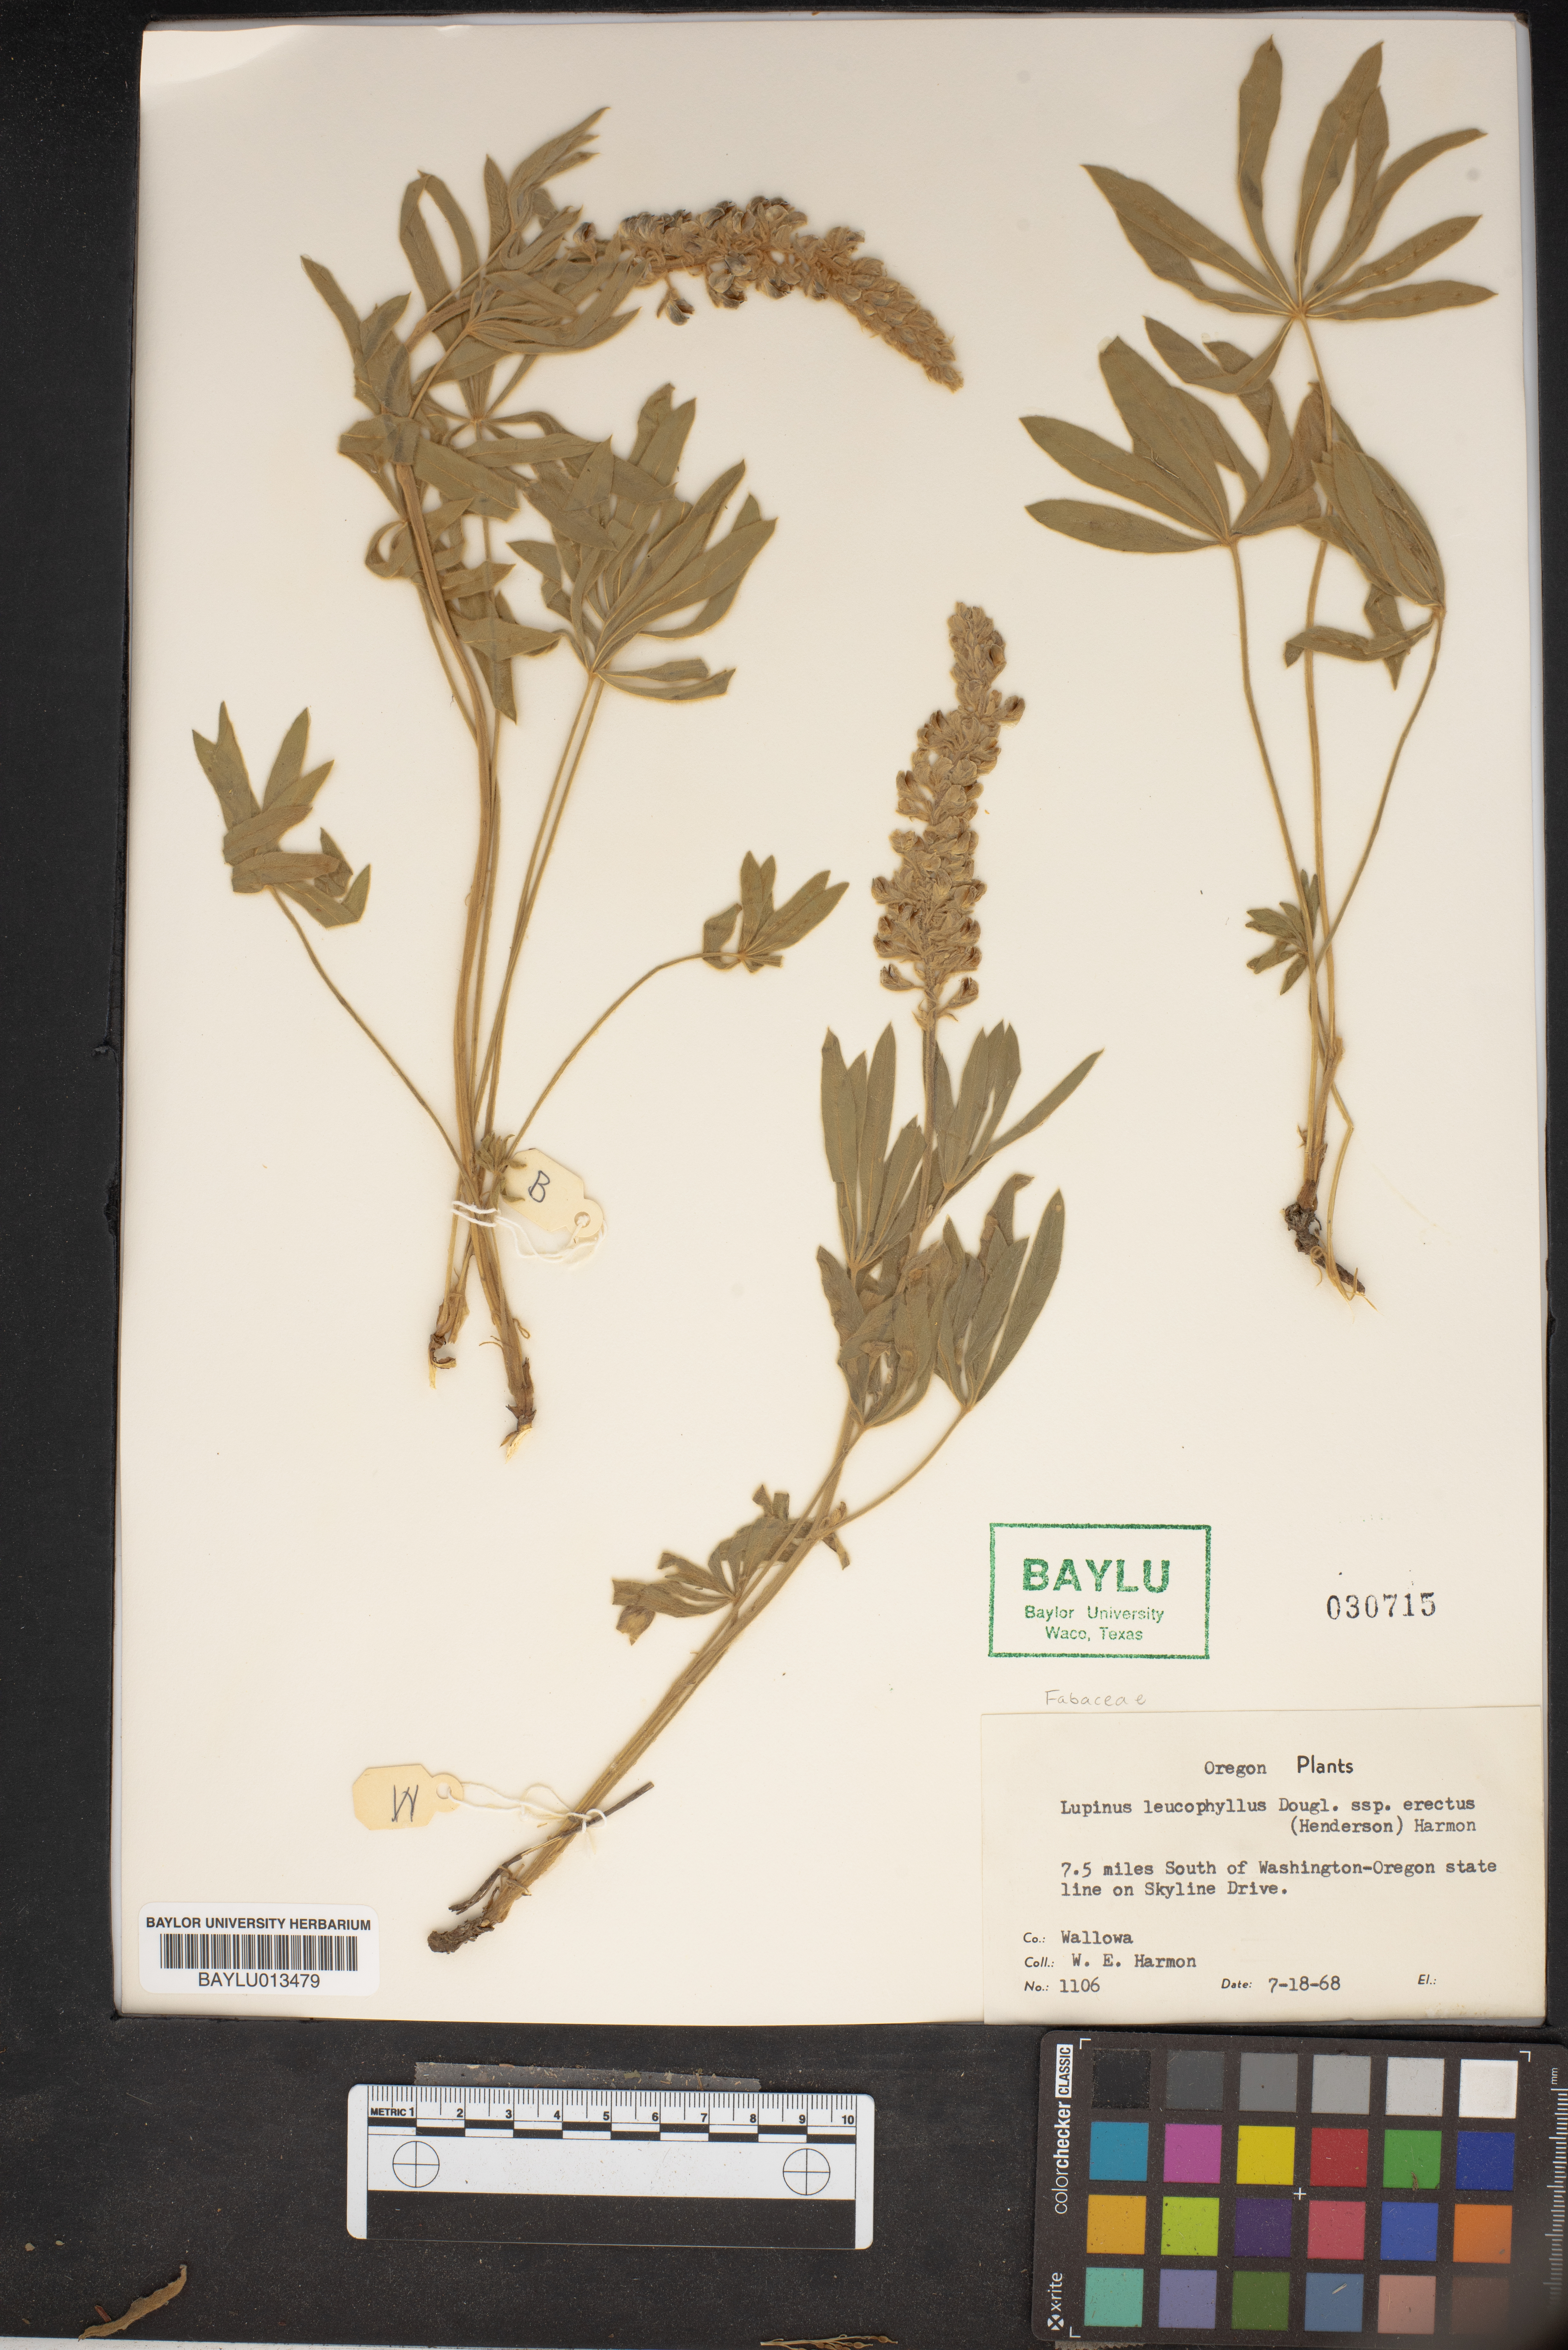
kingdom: Plantae
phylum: Tracheophyta
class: Magnoliopsida
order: Fabales
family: Fabaceae
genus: Lupinus
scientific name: Lupinus leucophyllus
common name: Woolly-leaf lupine
